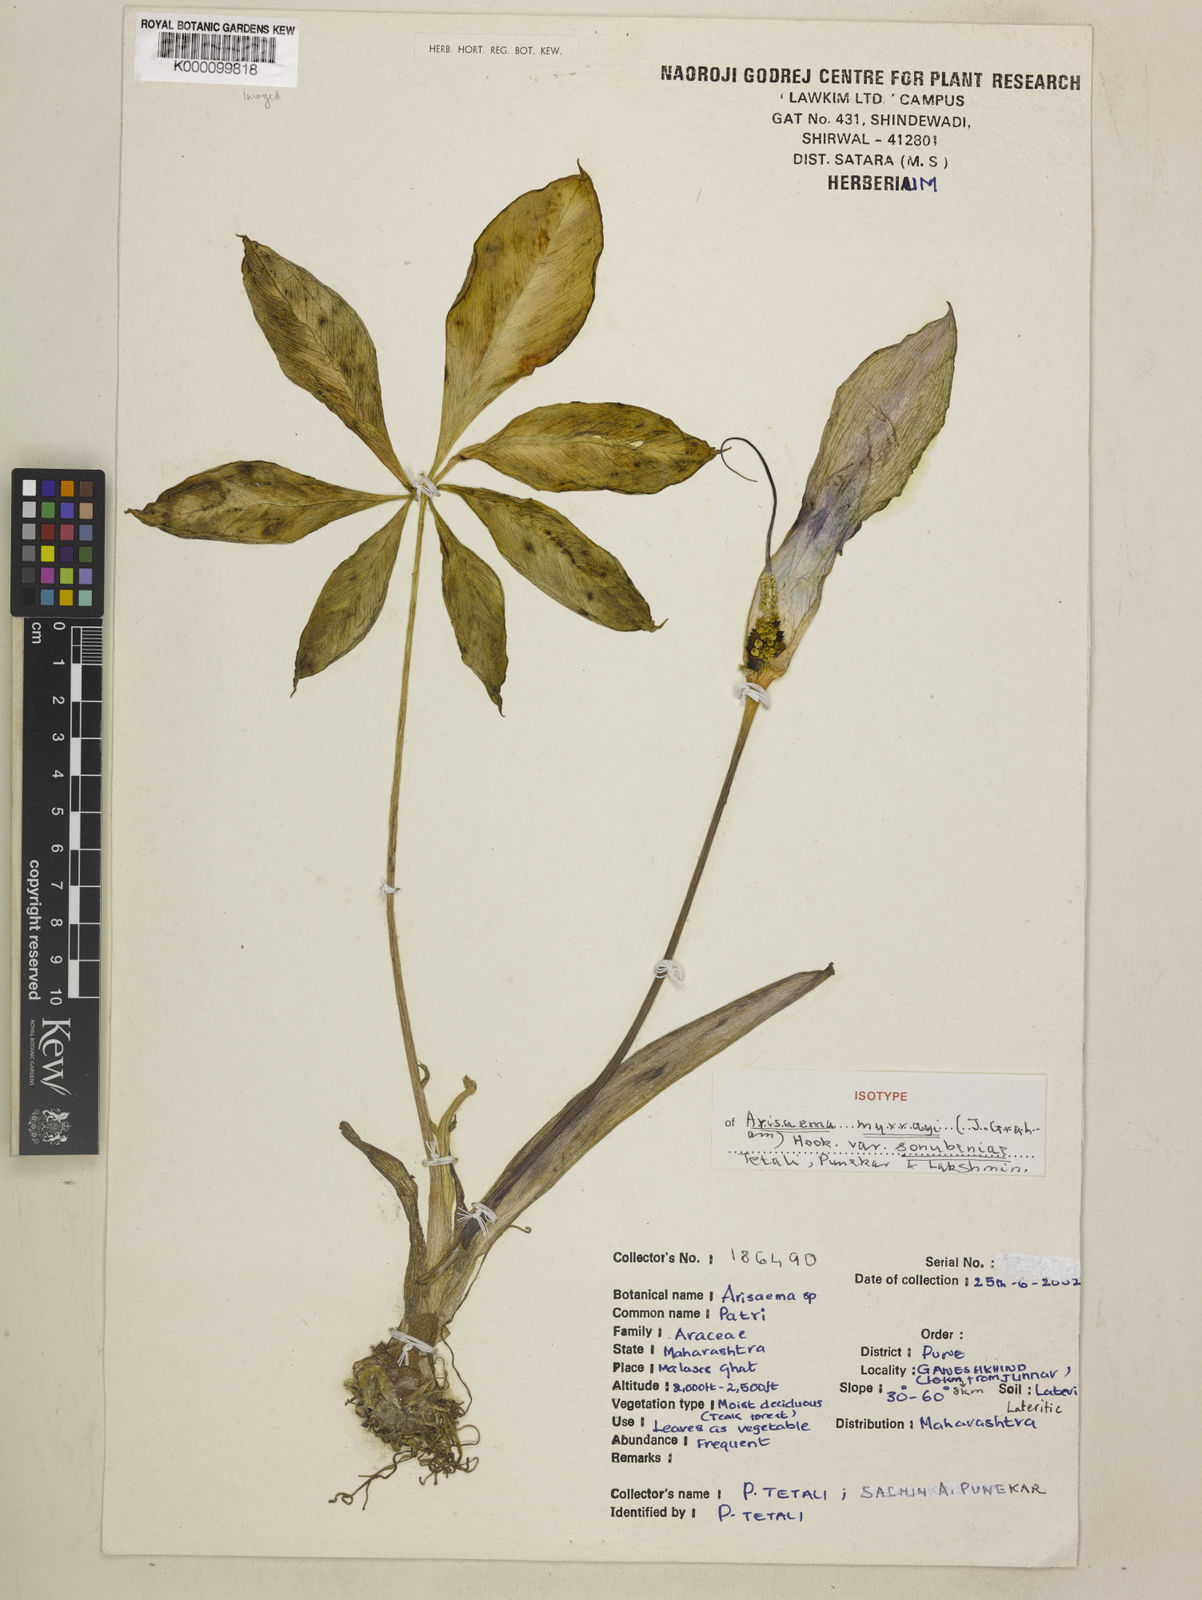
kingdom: Plantae
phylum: Tracheophyta
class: Liliopsida
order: Alismatales
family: Araceae
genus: Arisaema
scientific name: Arisaema murrayi
